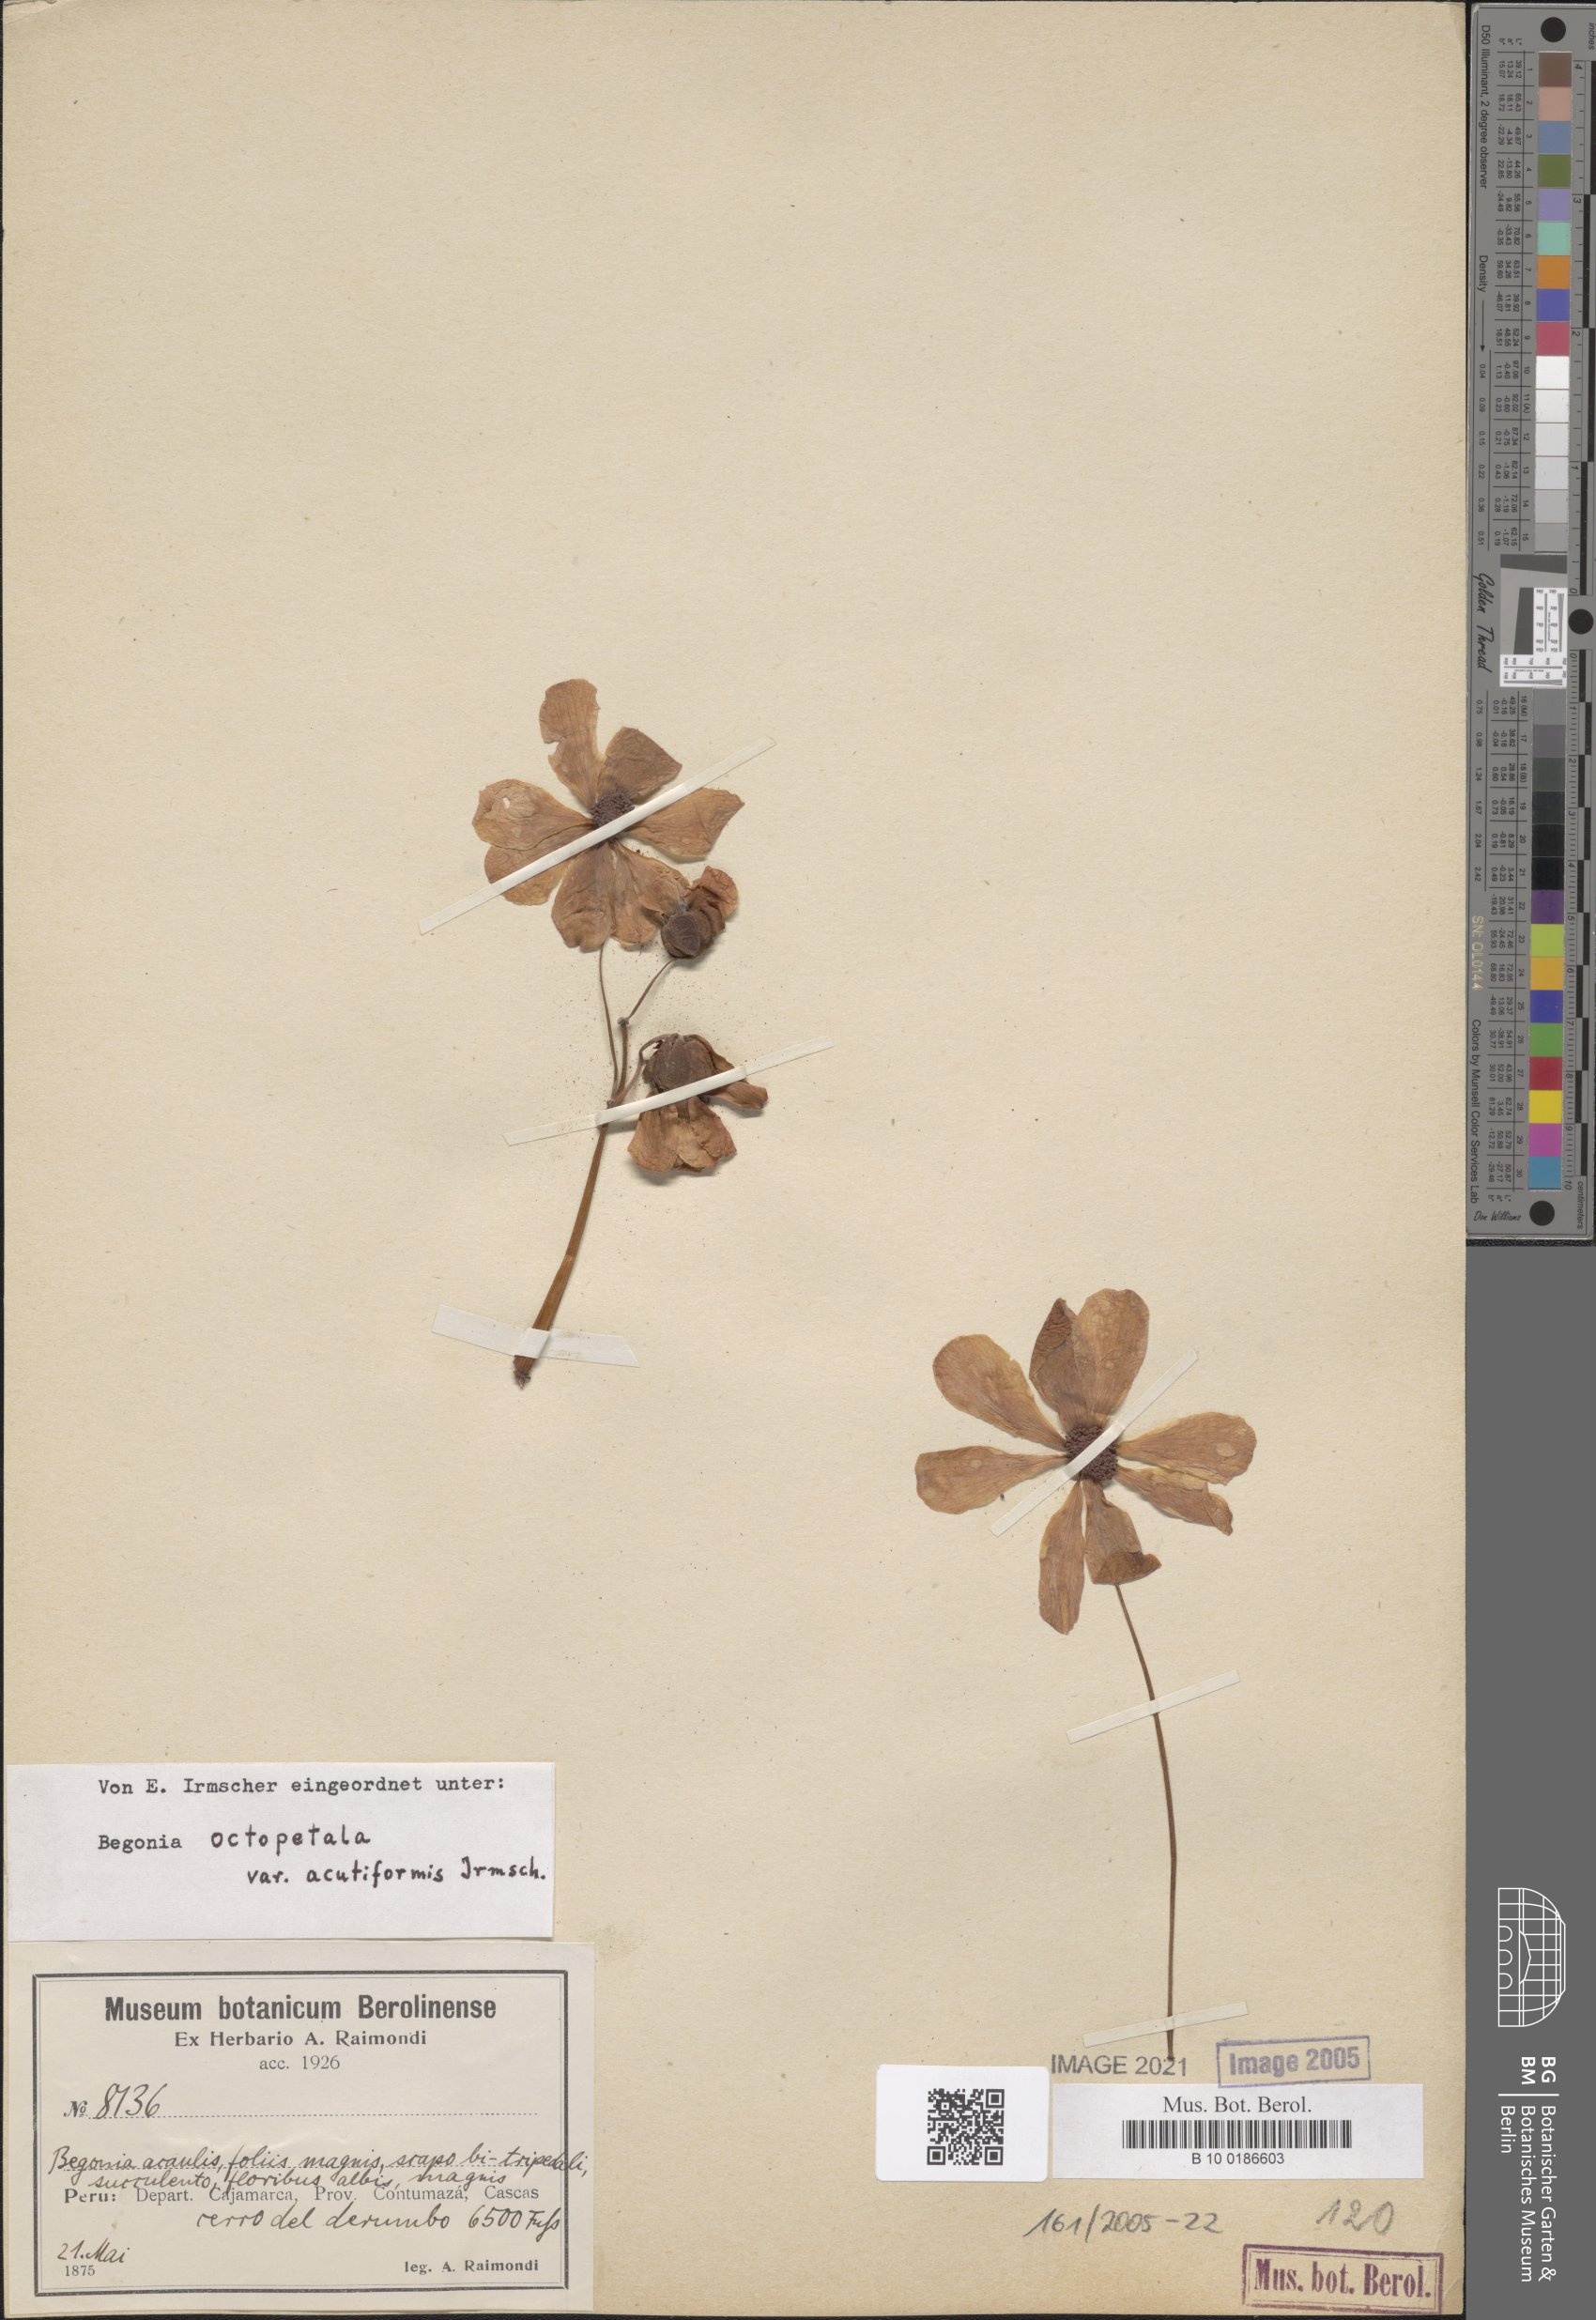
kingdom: Plantae
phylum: Tracheophyta
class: Magnoliopsida
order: Cucurbitales
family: Begoniaceae
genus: Begonia
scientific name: Begonia octopetala
